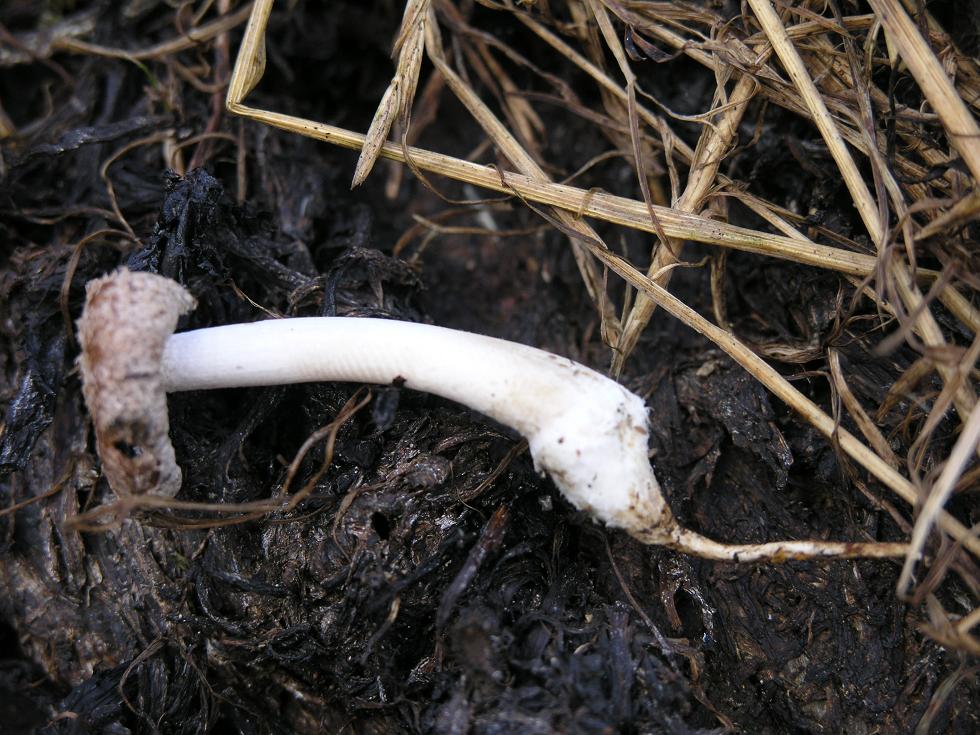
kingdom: Fungi
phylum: Basidiomycota
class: Agaricomycetes
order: Agaricales
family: Psathyrellaceae
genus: Coprinopsis
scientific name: Coprinopsis macrocephala
